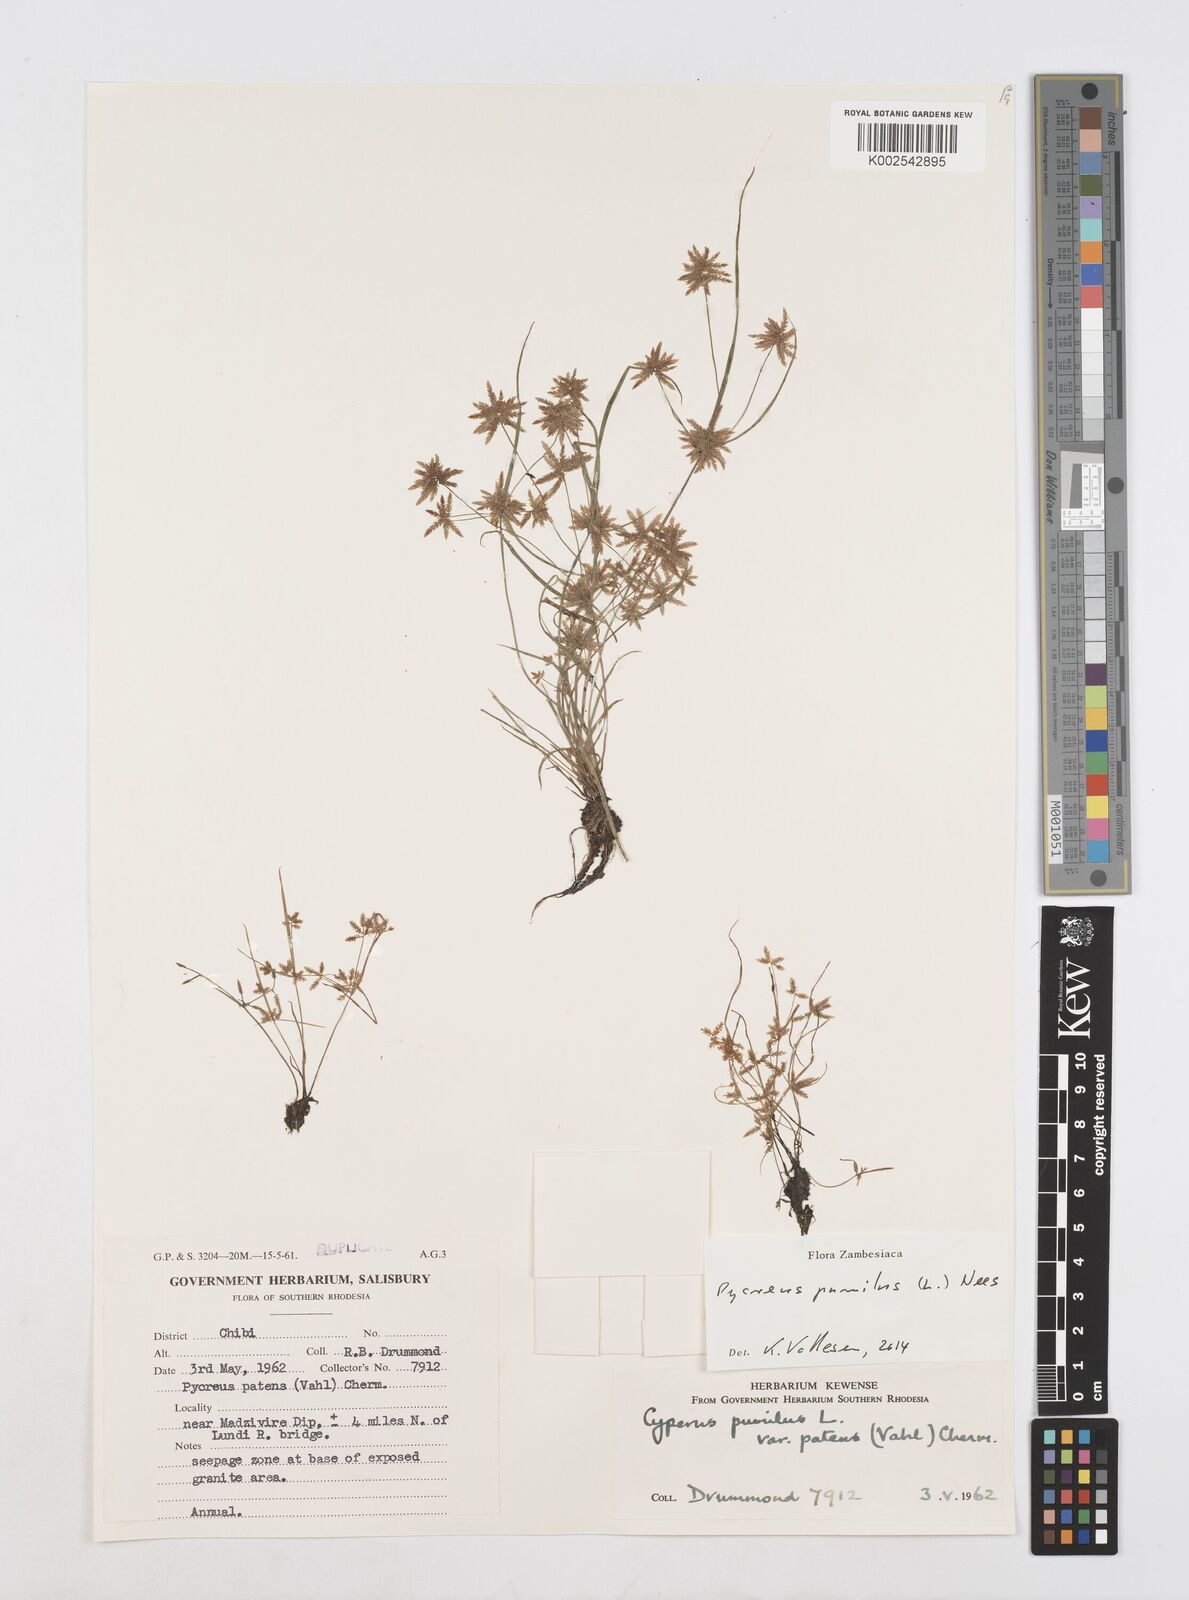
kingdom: Plantae
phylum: Tracheophyta
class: Liliopsida
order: Poales
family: Cyperaceae
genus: Cyperus
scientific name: Cyperus pumilus
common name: Low flatsedge
